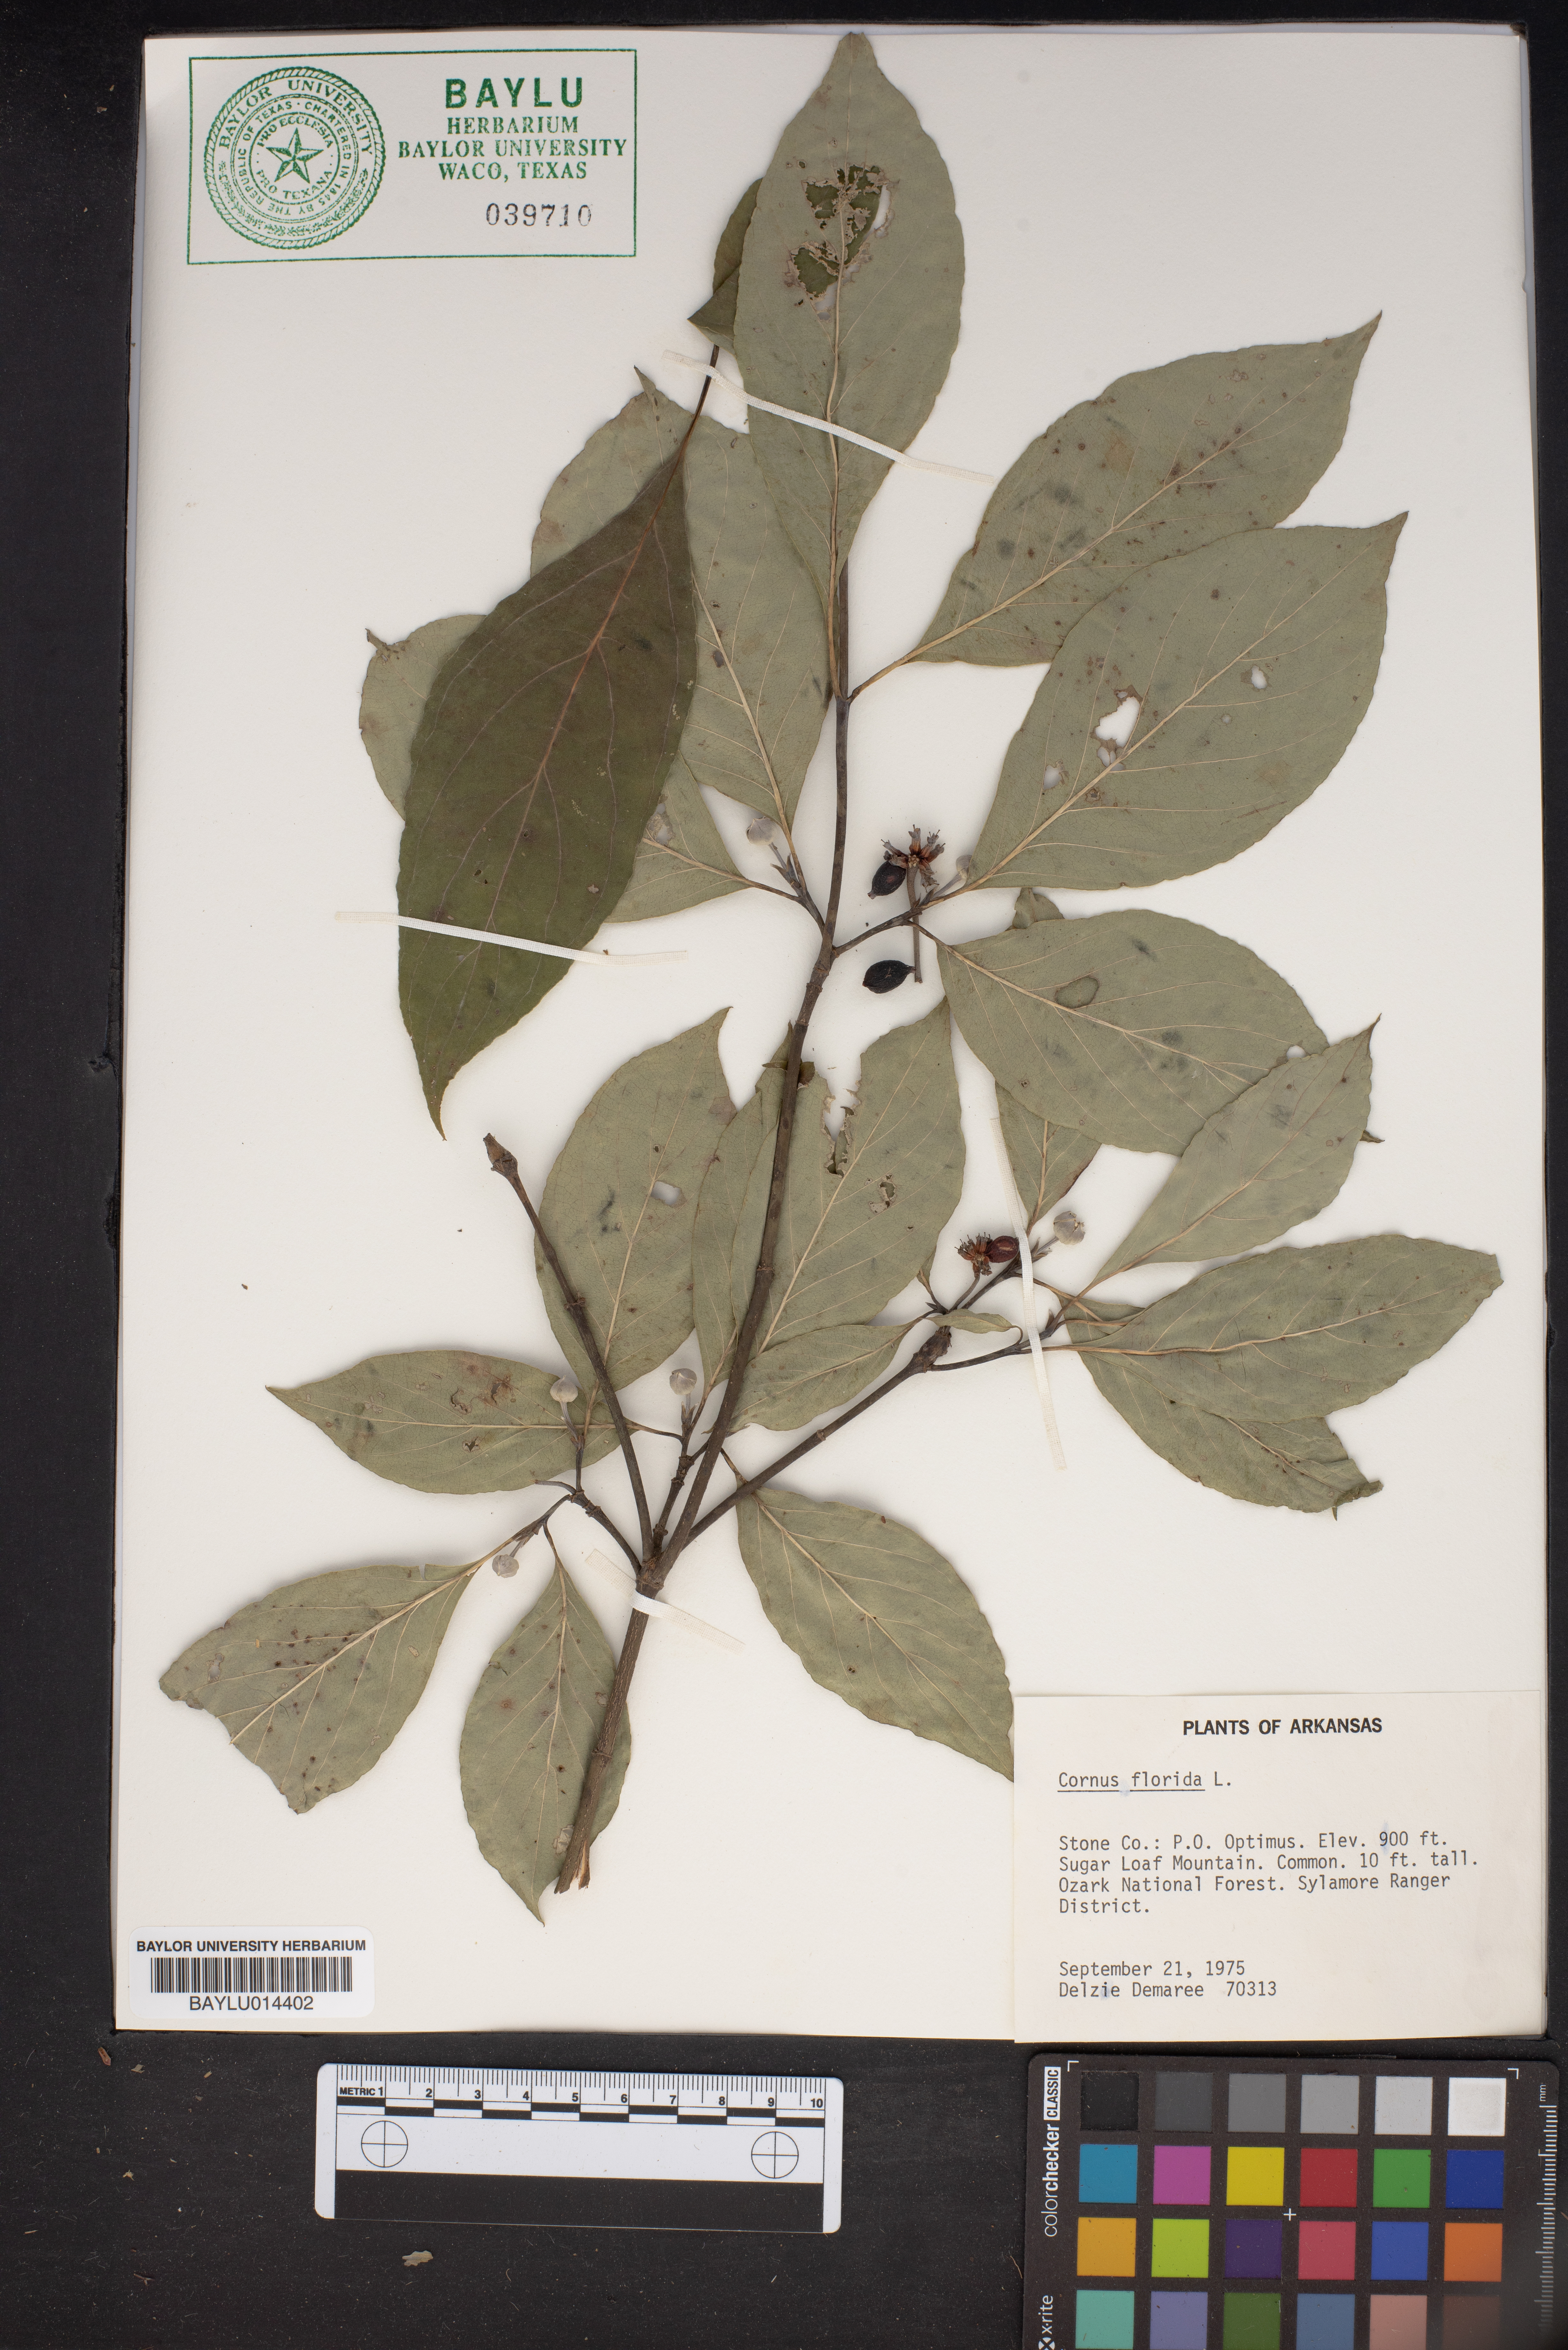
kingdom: Plantae
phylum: Tracheophyta
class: Magnoliopsida
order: Cornales
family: Cornaceae
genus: Cornus
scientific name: Cornus florida
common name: Flowering dogwood
